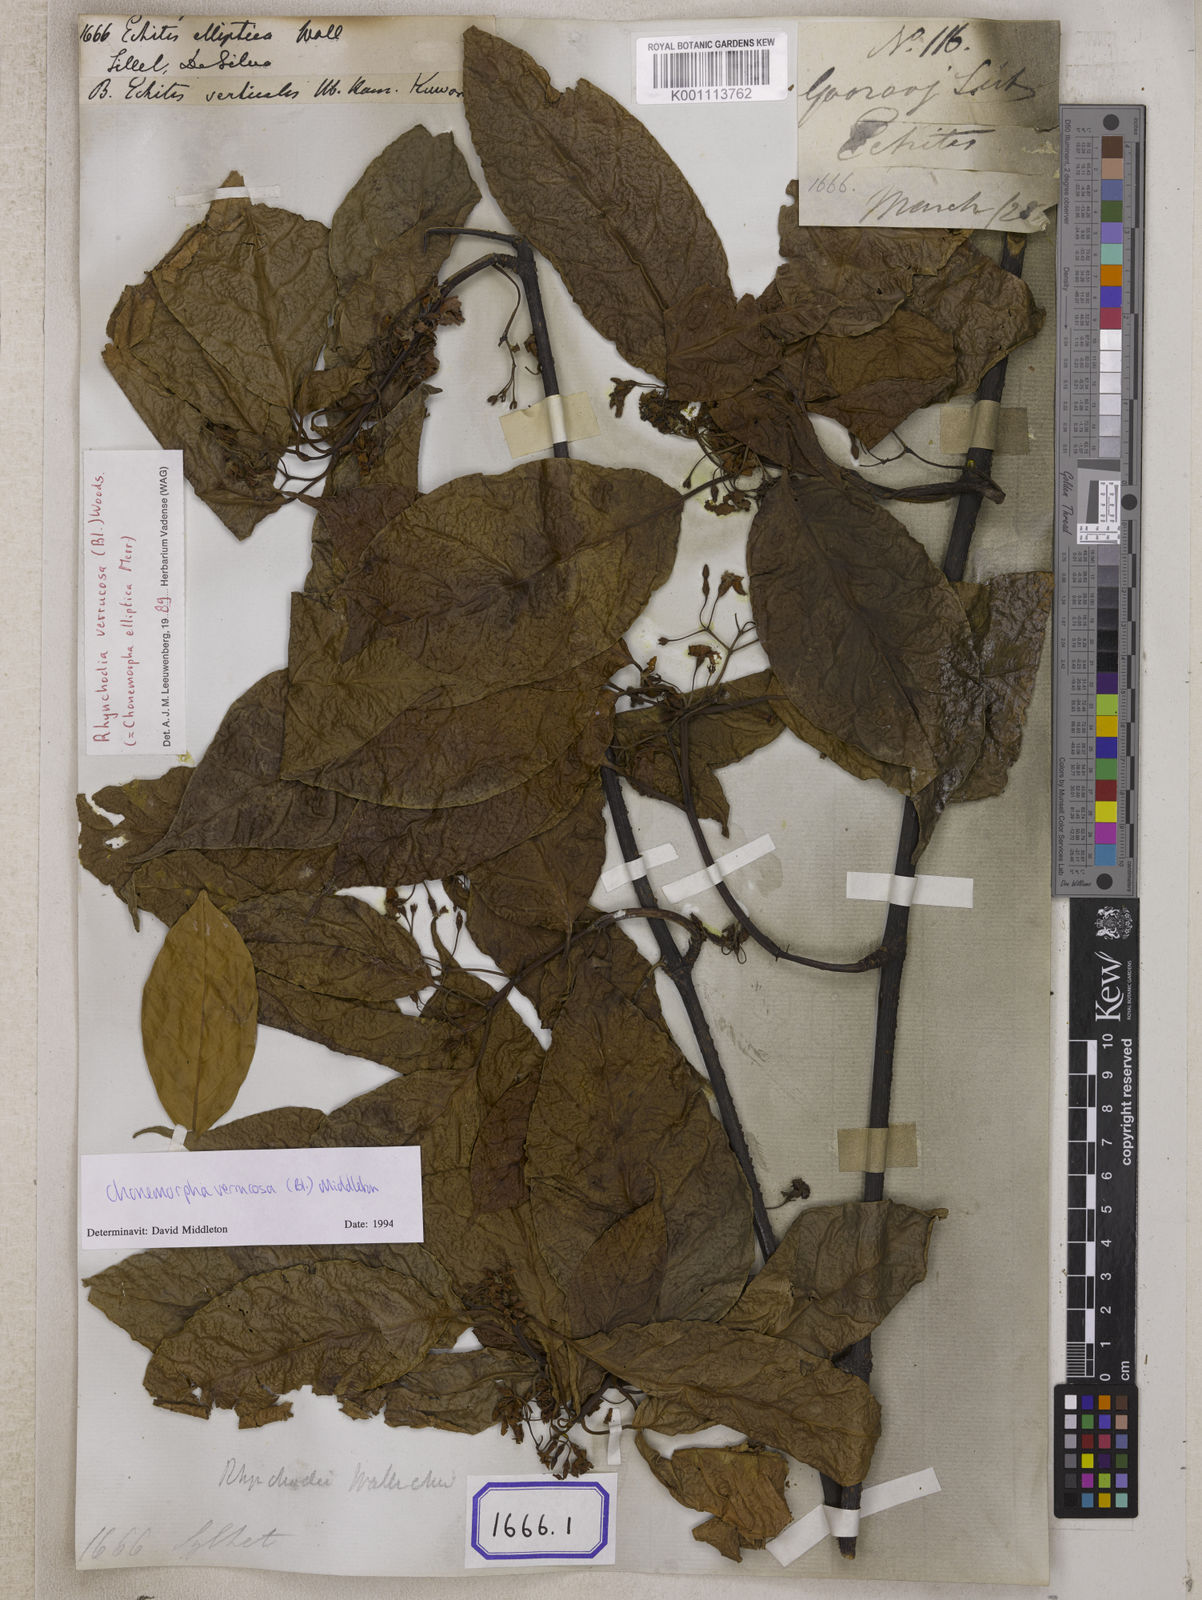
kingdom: Plantae
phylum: Tracheophyta
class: Magnoliopsida
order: Gentianales
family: Apocynaceae
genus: Echites
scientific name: Echites
